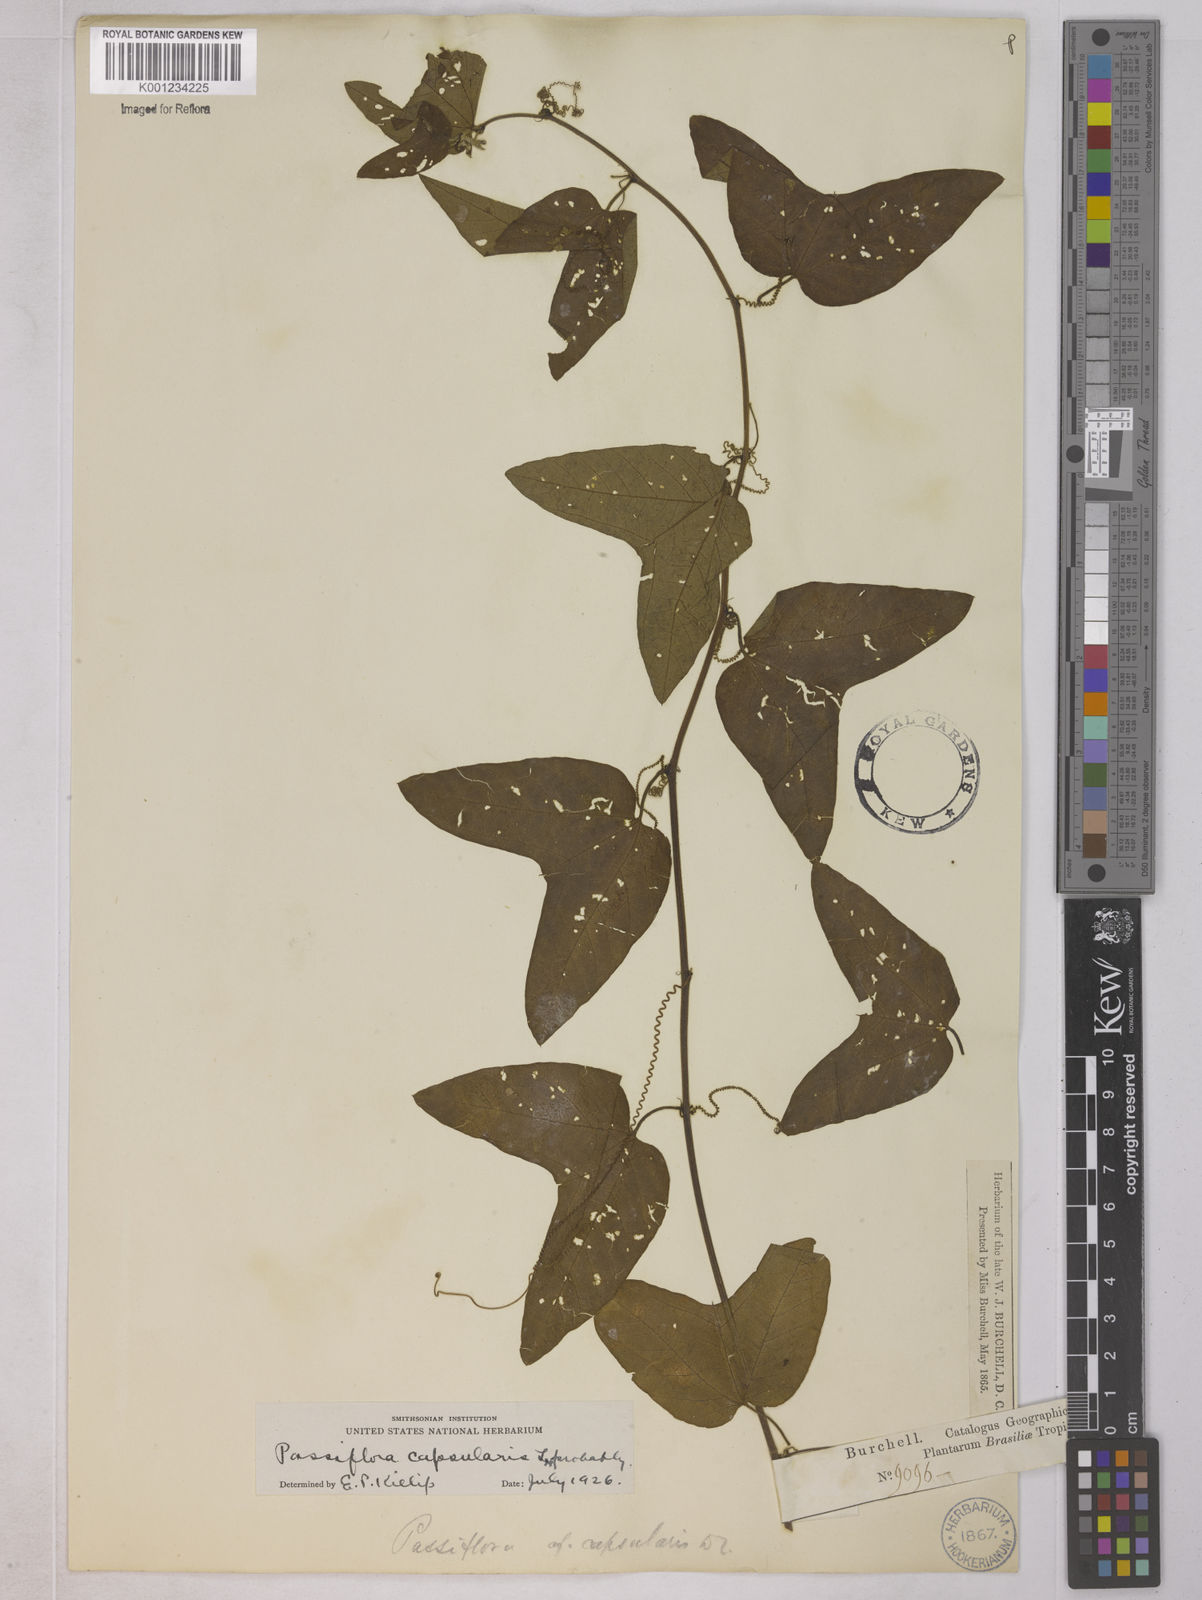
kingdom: Plantae
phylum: Tracheophyta
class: Magnoliopsida
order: Malpighiales
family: Passifloraceae
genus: Passiflora
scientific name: Passiflora capsularis
